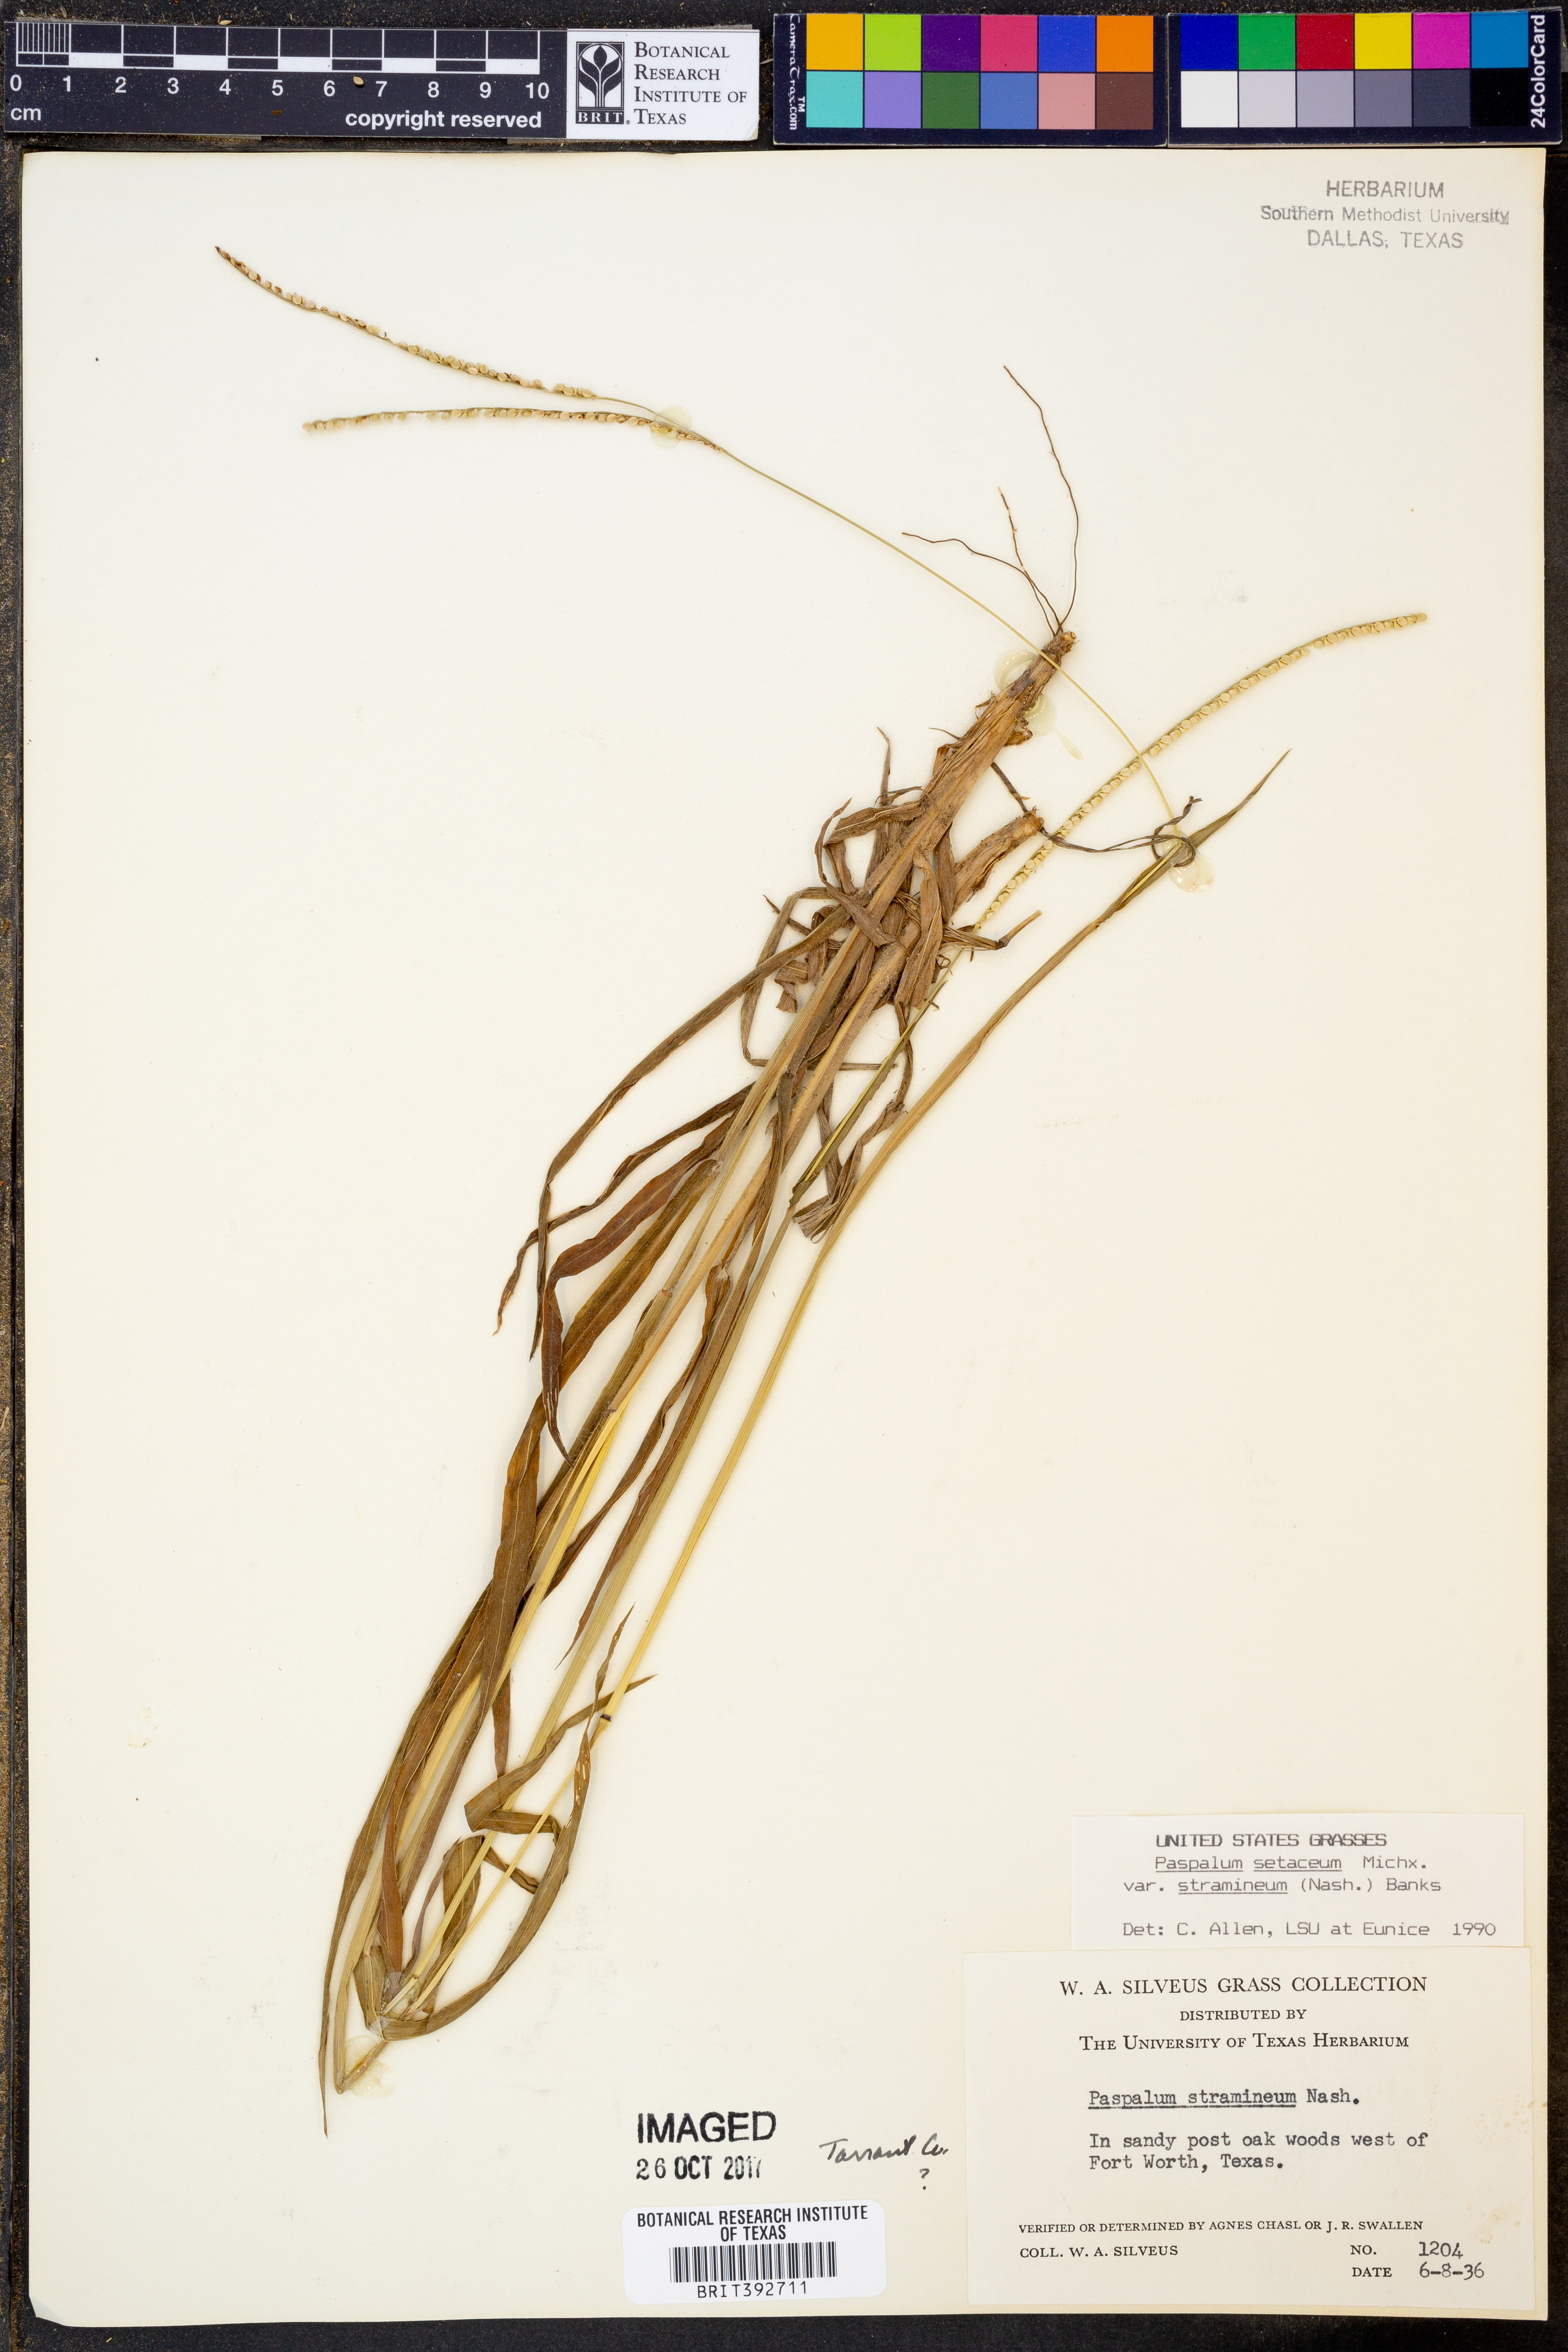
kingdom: Plantae
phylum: Tracheophyta
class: Liliopsida
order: Poales
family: Poaceae
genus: Paspalum
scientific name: Paspalum setaceum
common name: Slender paspalum
